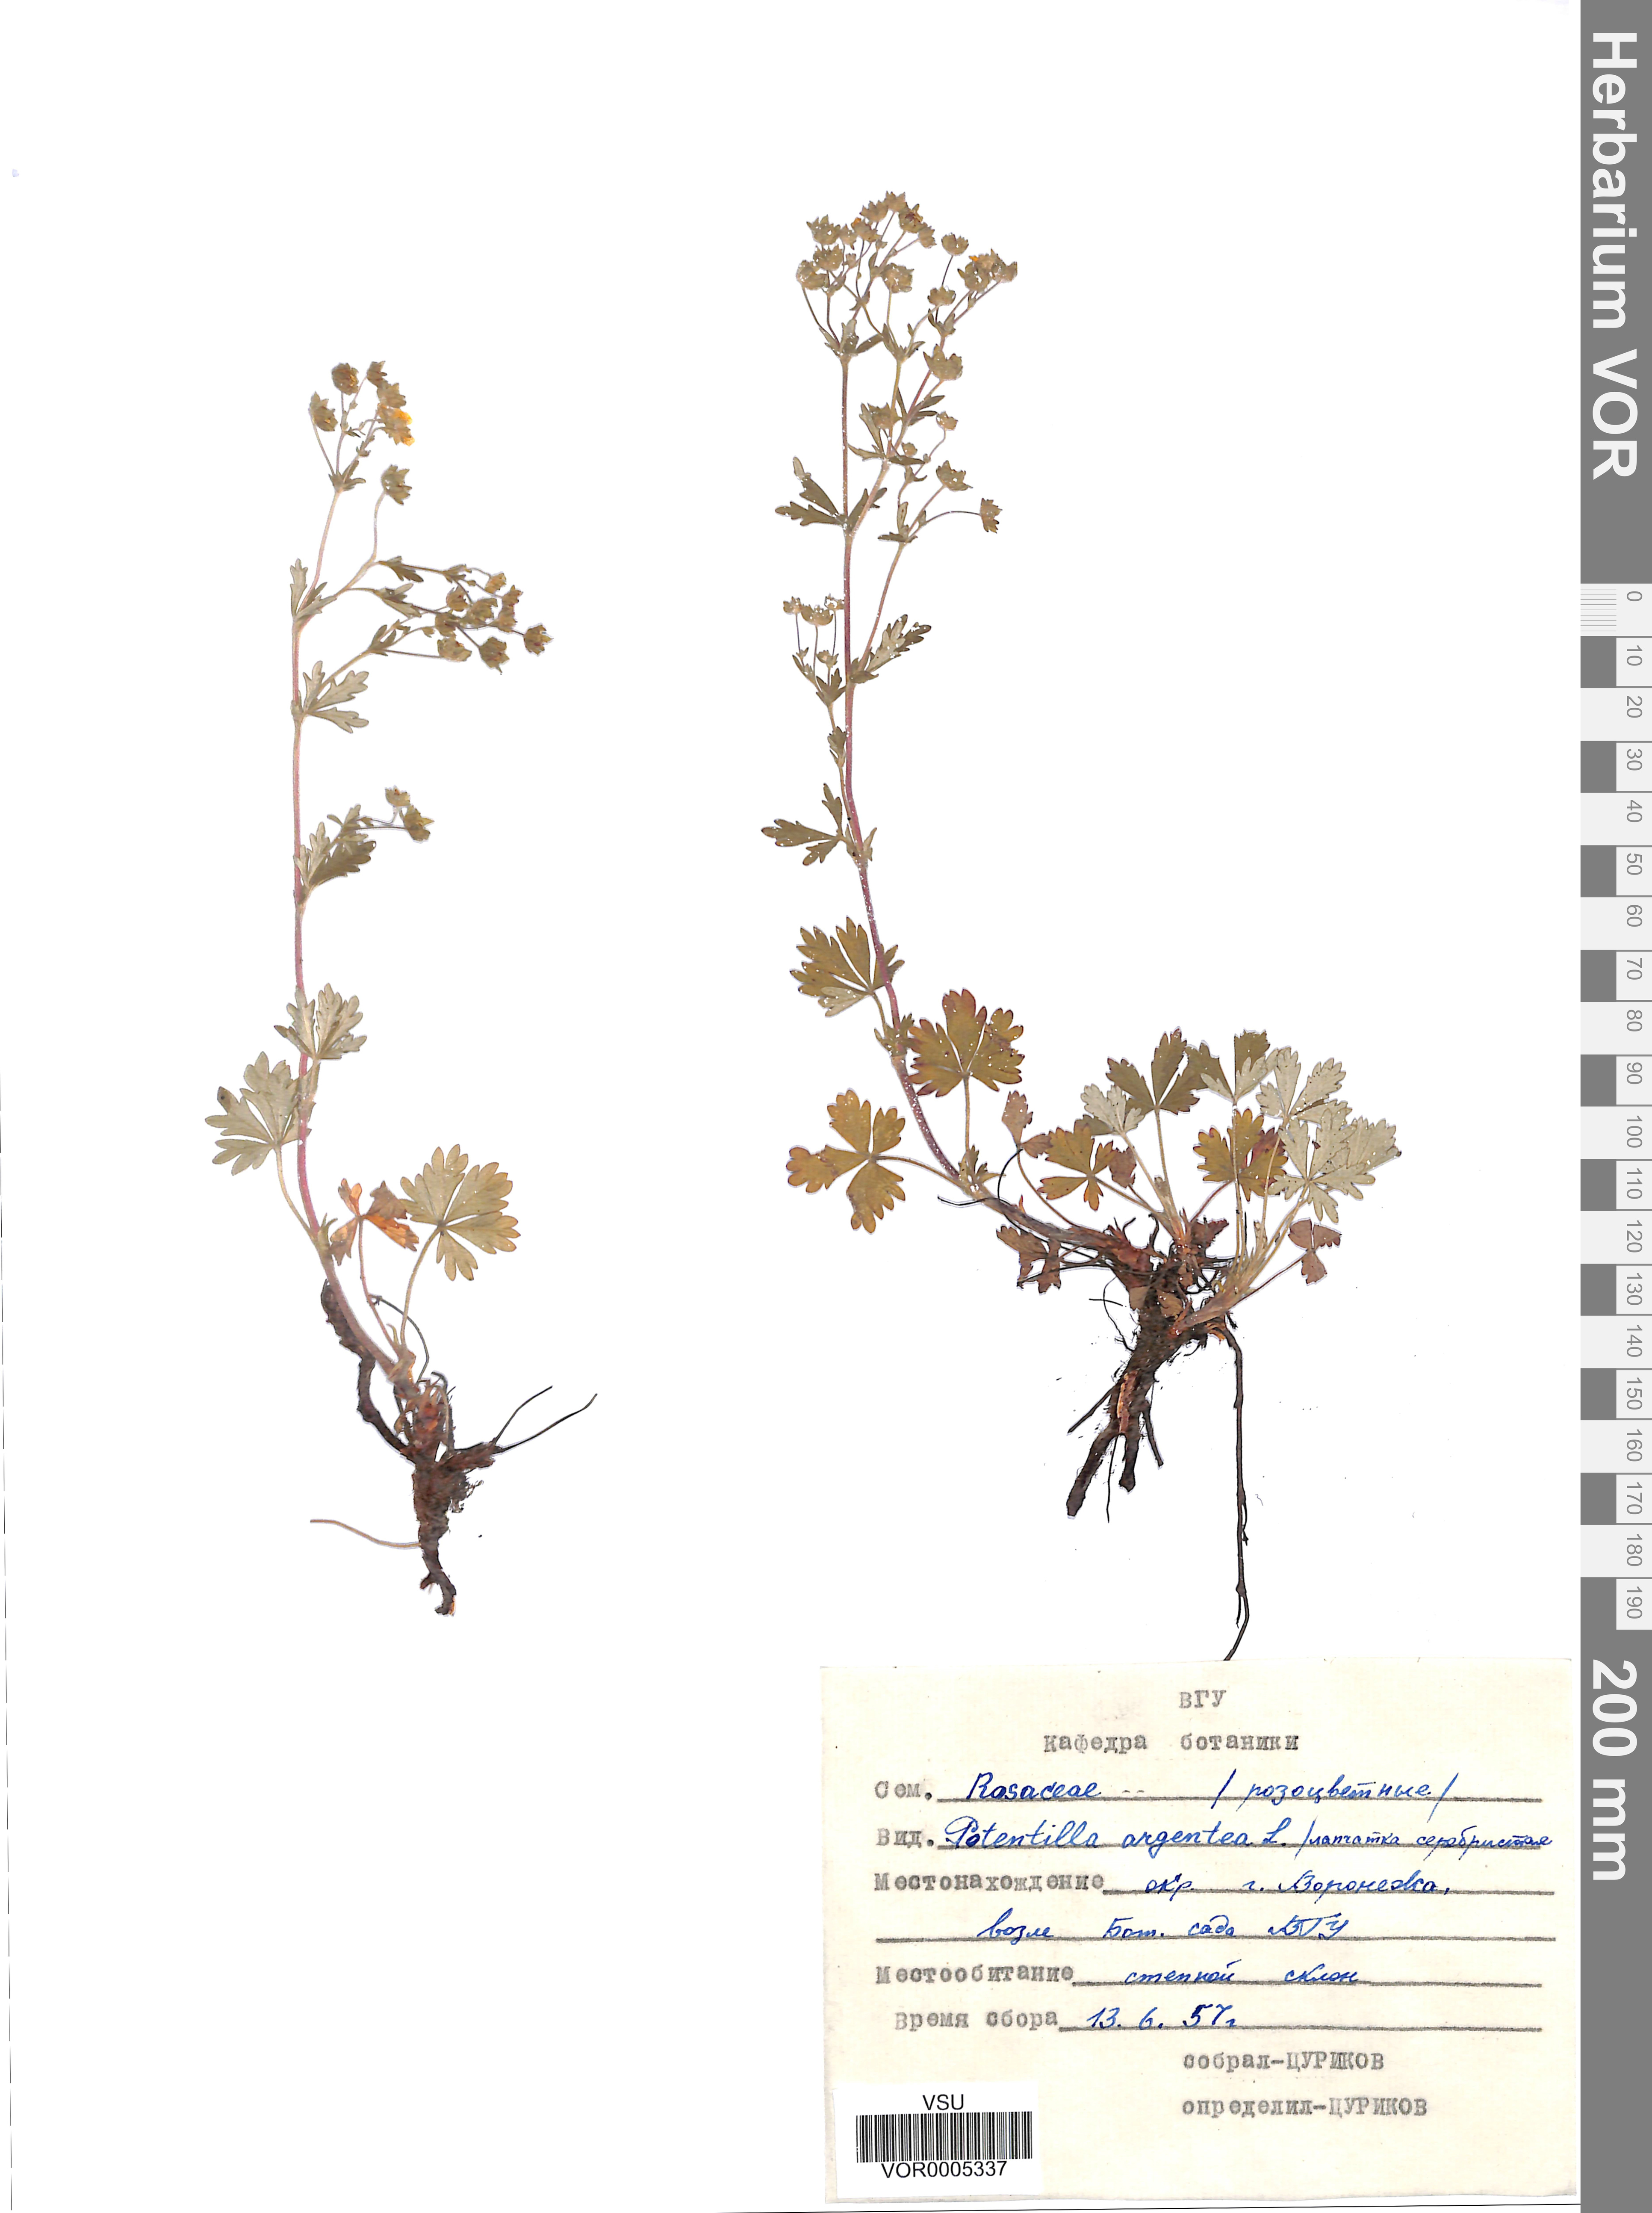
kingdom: Plantae
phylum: Tracheophyta
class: Magnoliopsida
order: Rosales
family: Rosaceae
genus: Potentilla
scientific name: Potentilla argentea
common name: Hoary cinquefoil
